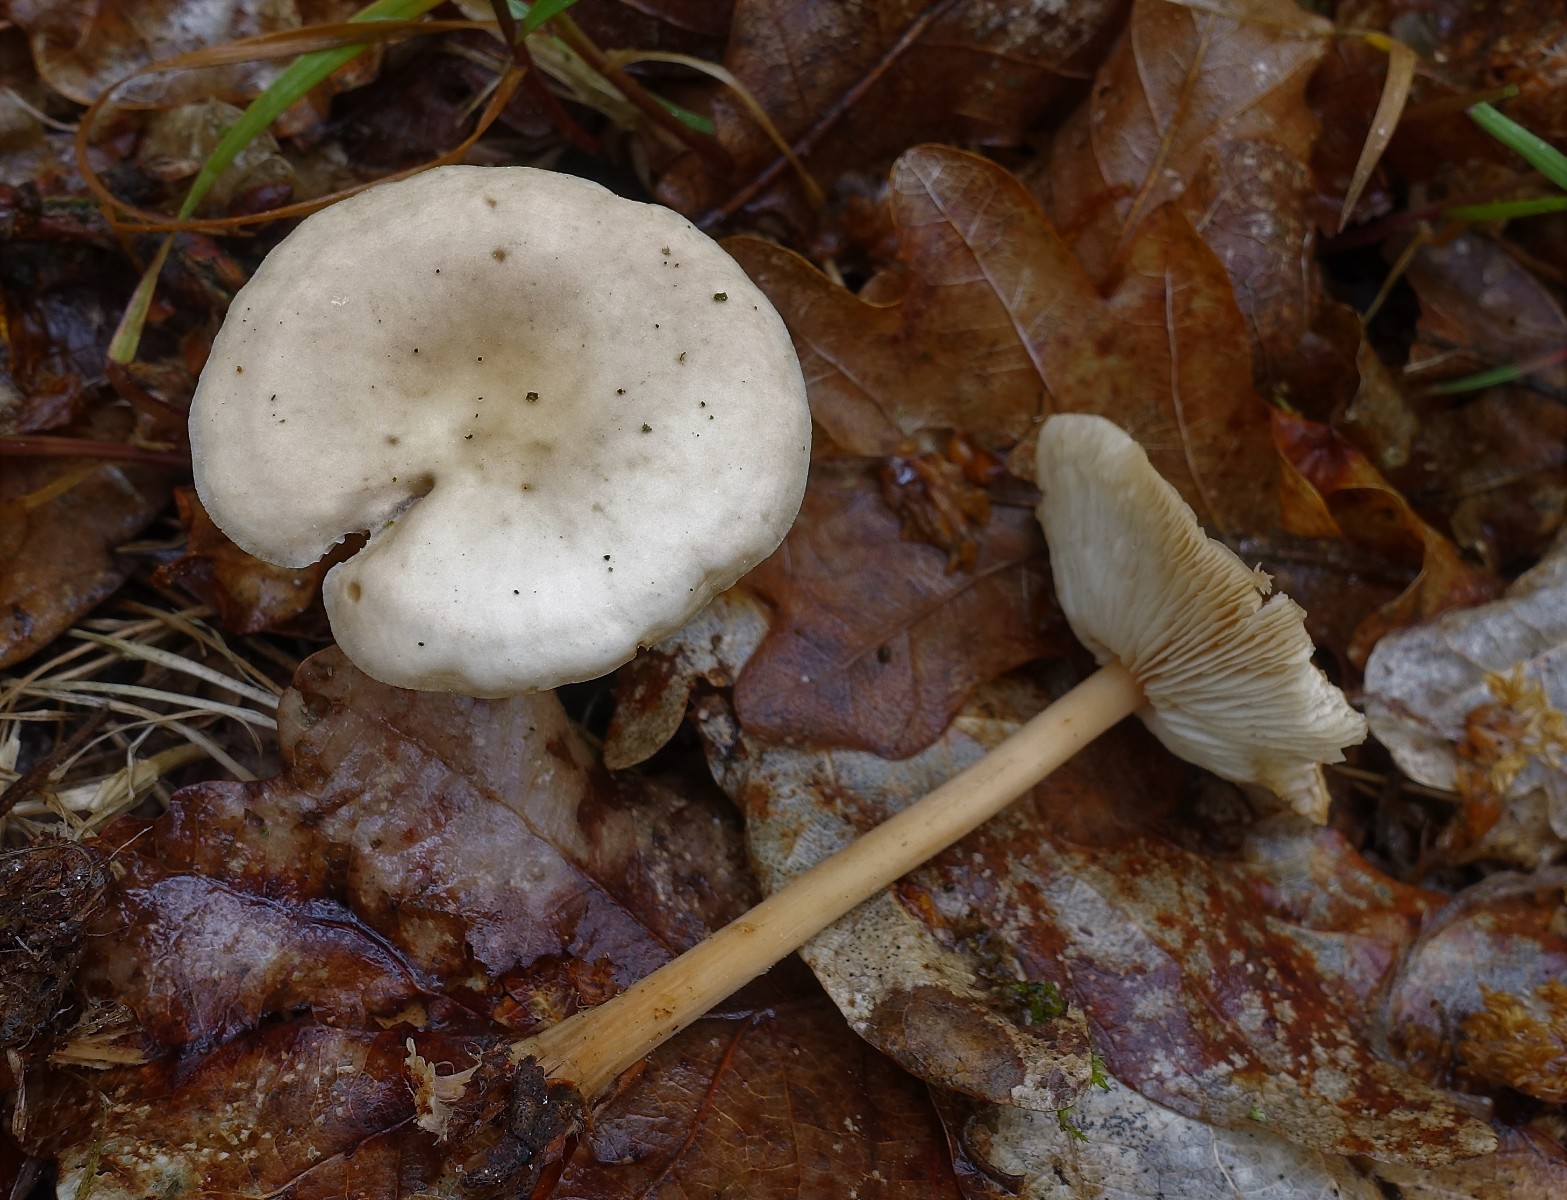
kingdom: Fungi
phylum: Basidiomycota
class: Agaricomycetes
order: Agaricales
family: Omphalotaceae
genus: Gymnopus
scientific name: Gymnopus dryophilus
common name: løv-fladhat
